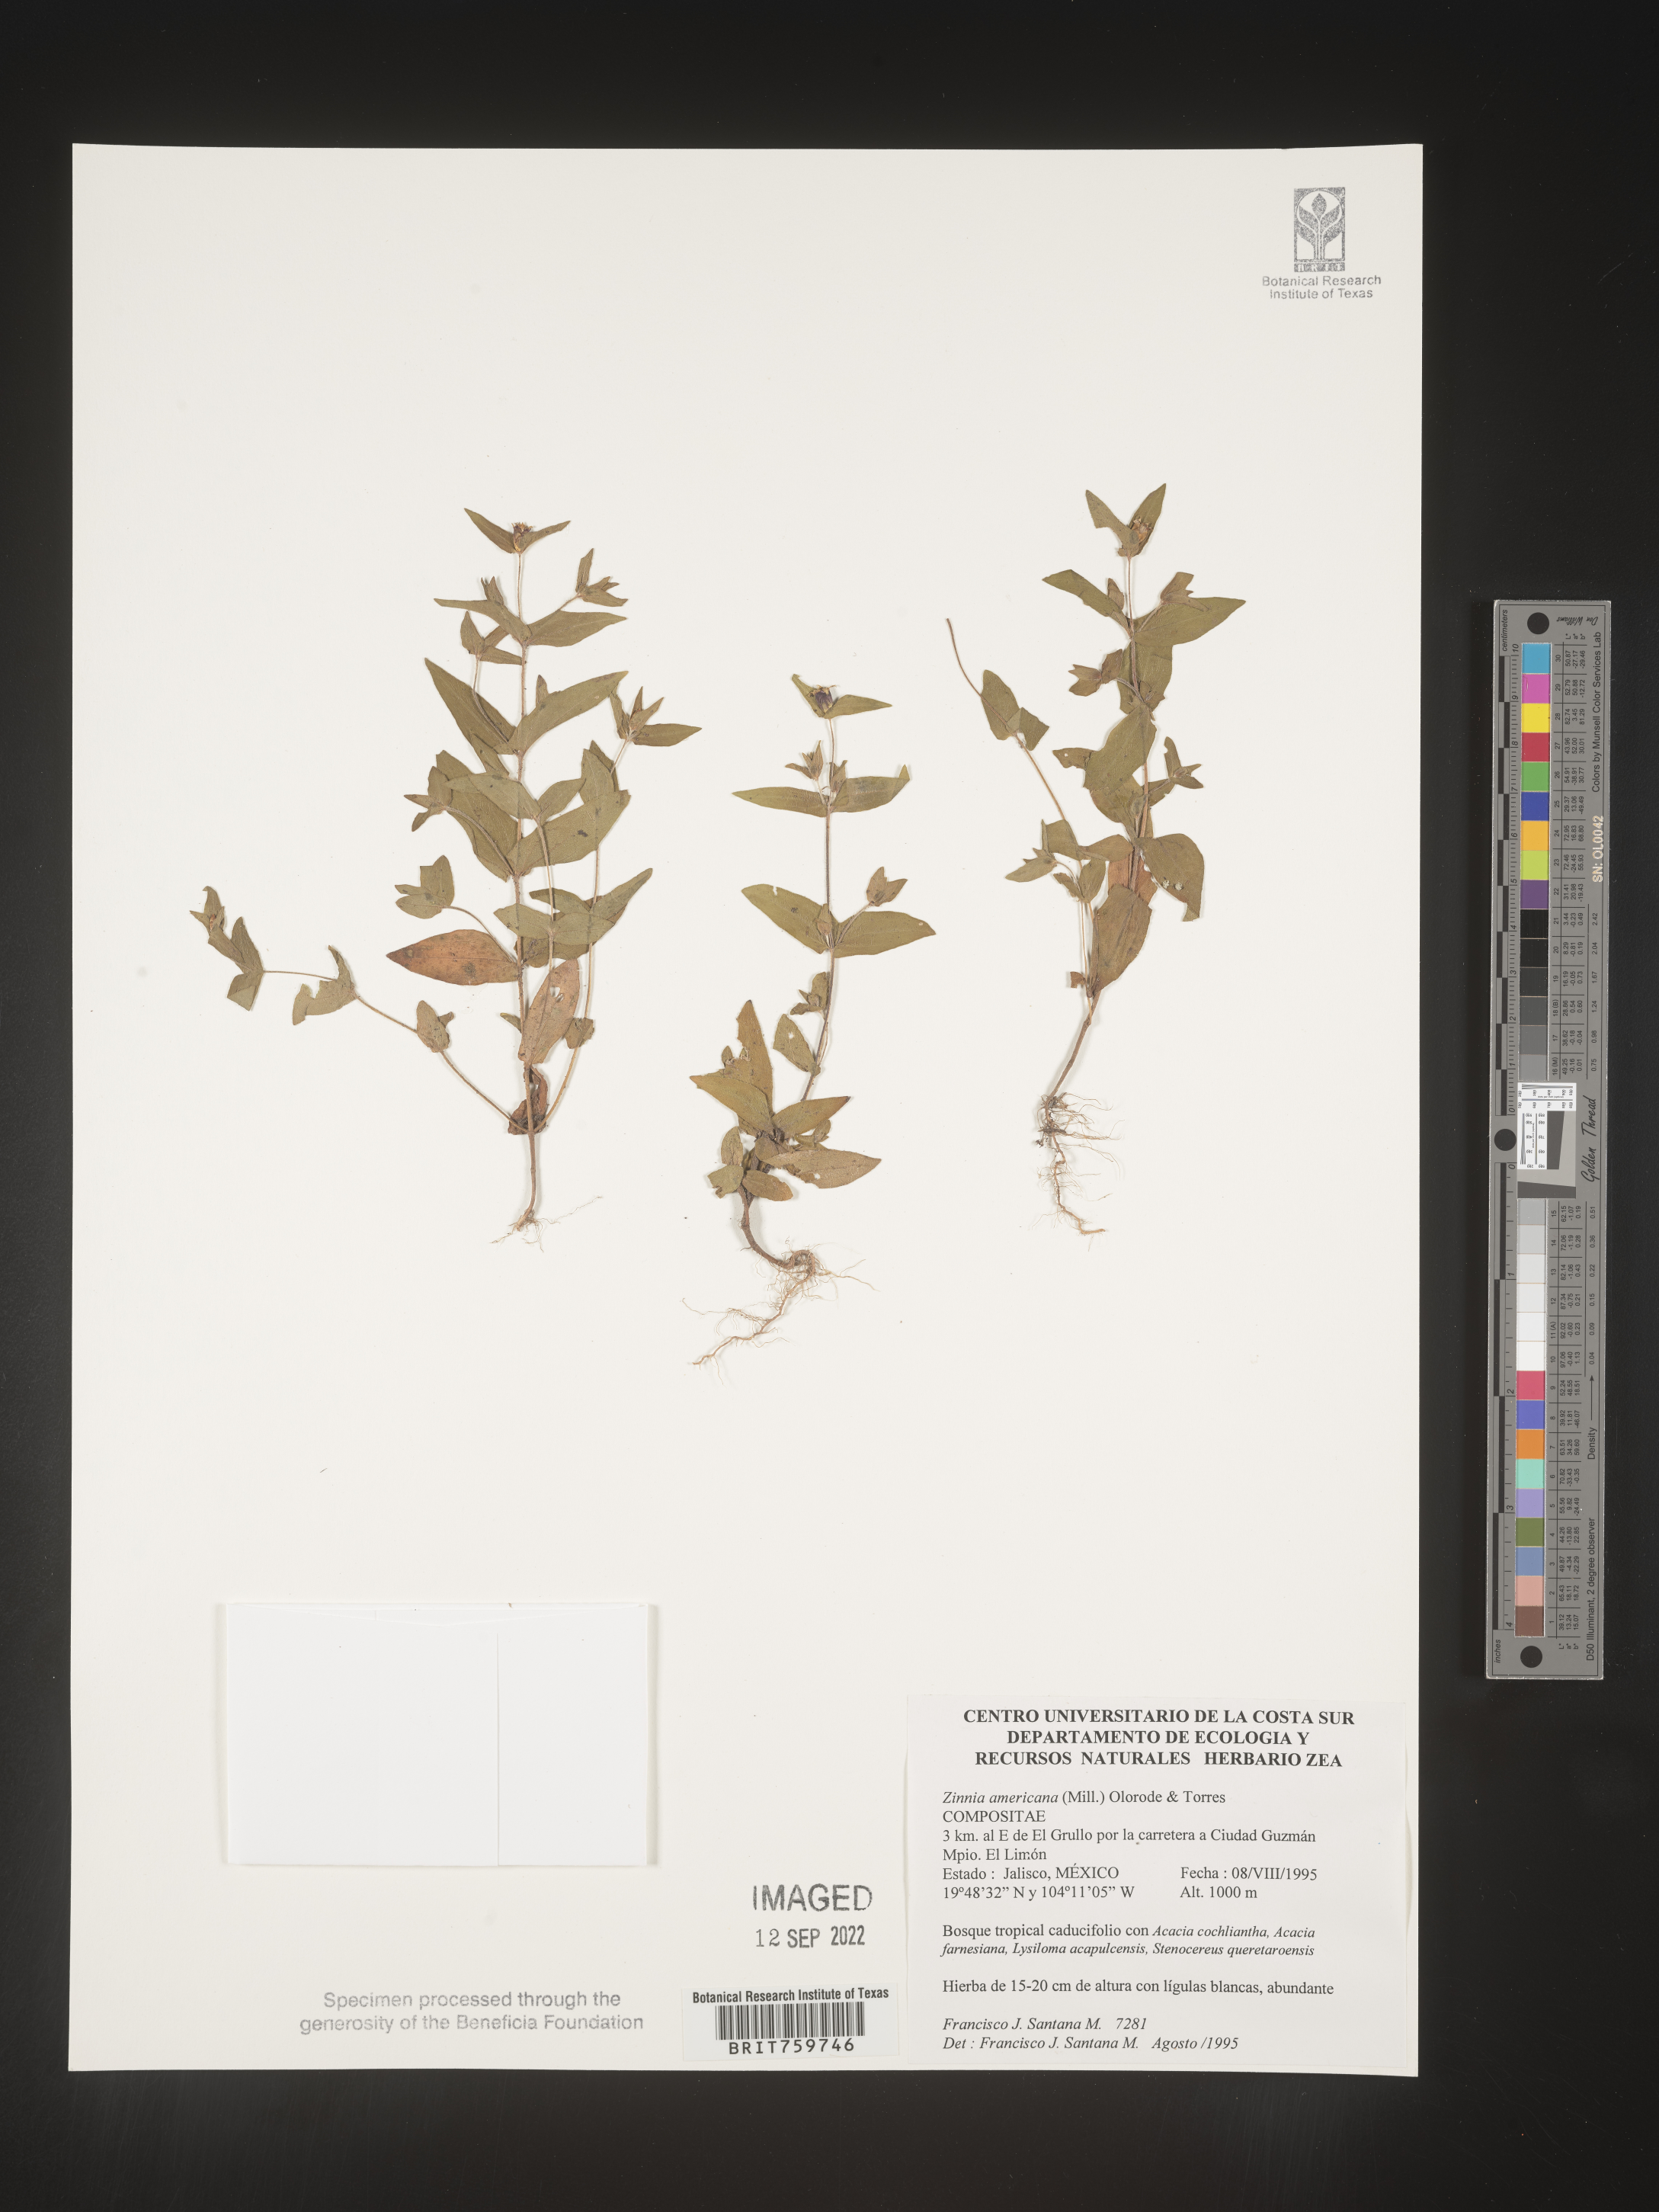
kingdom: Plantae
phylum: Tracheophyta
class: Magnoliopsida
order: Asterales
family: Asteraceae
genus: Zinnia
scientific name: Zinnia
